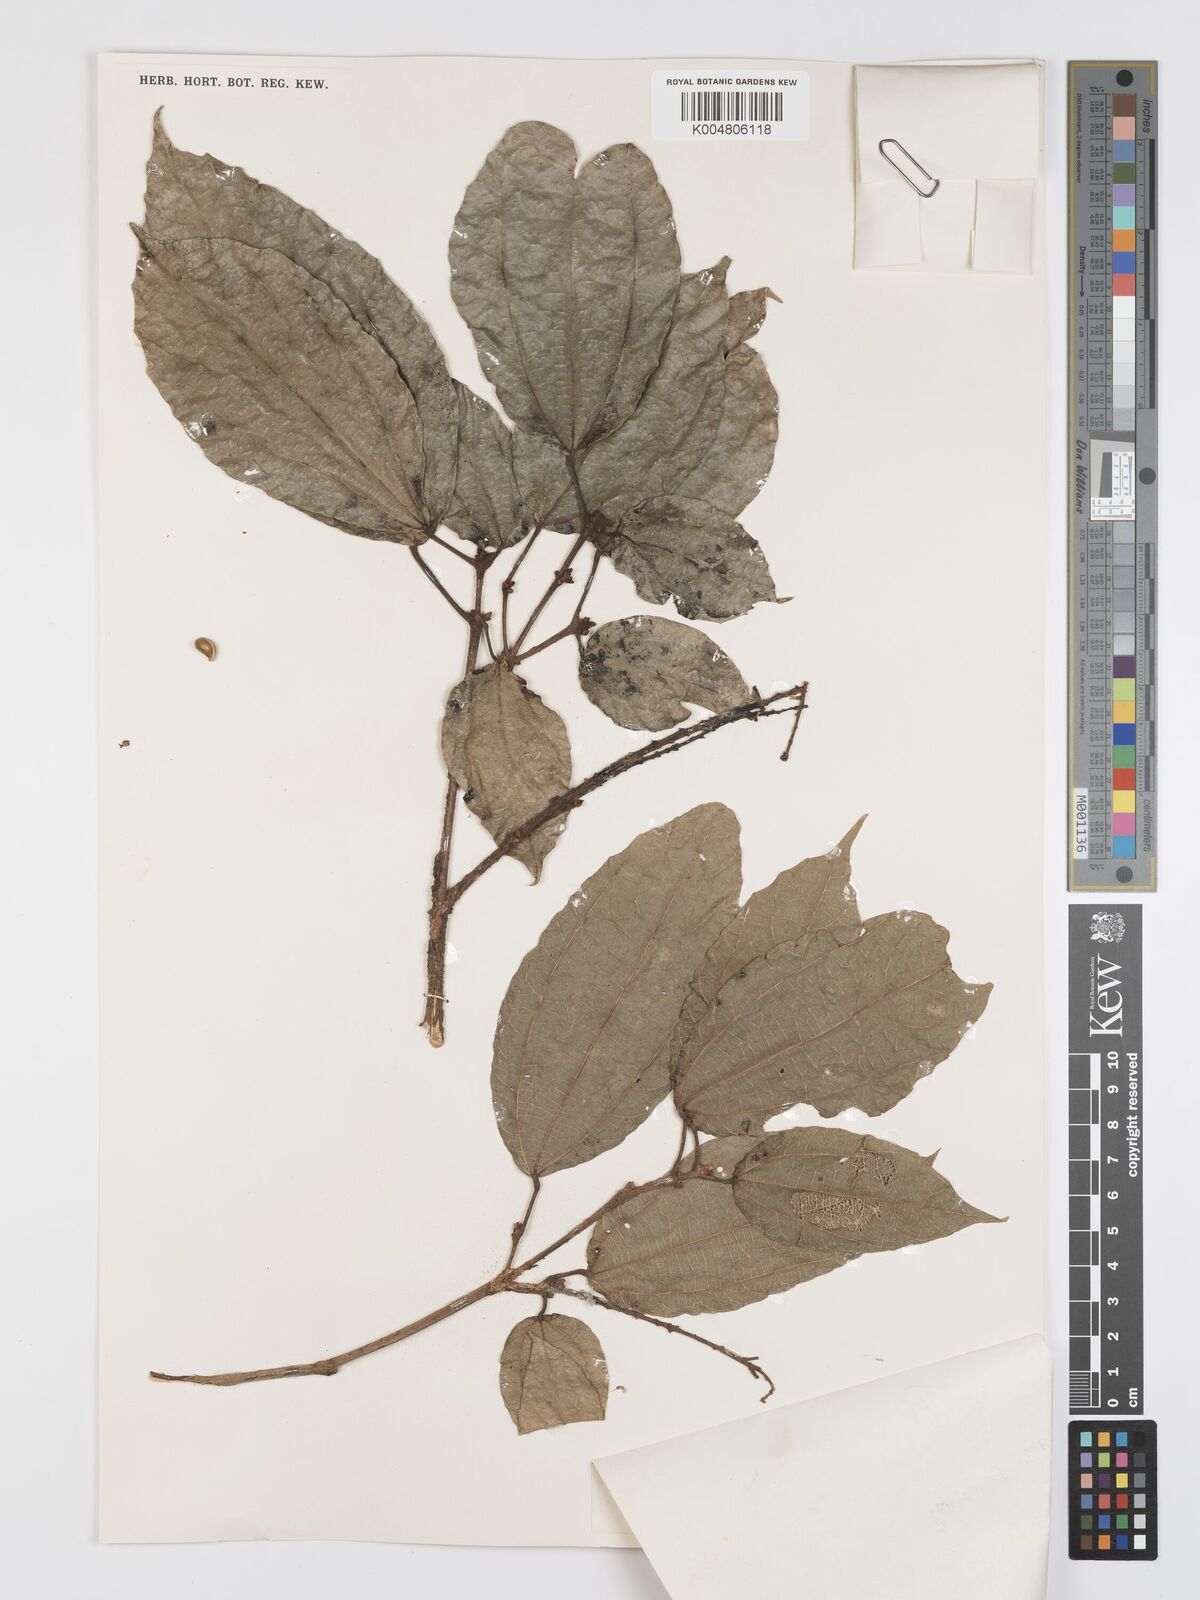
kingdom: Plantae
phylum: Tracheophyta
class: Magnoliopsida
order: Malpighiales
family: Euphorbiaceae
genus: Mallotus
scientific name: Mallotus korthalsii
